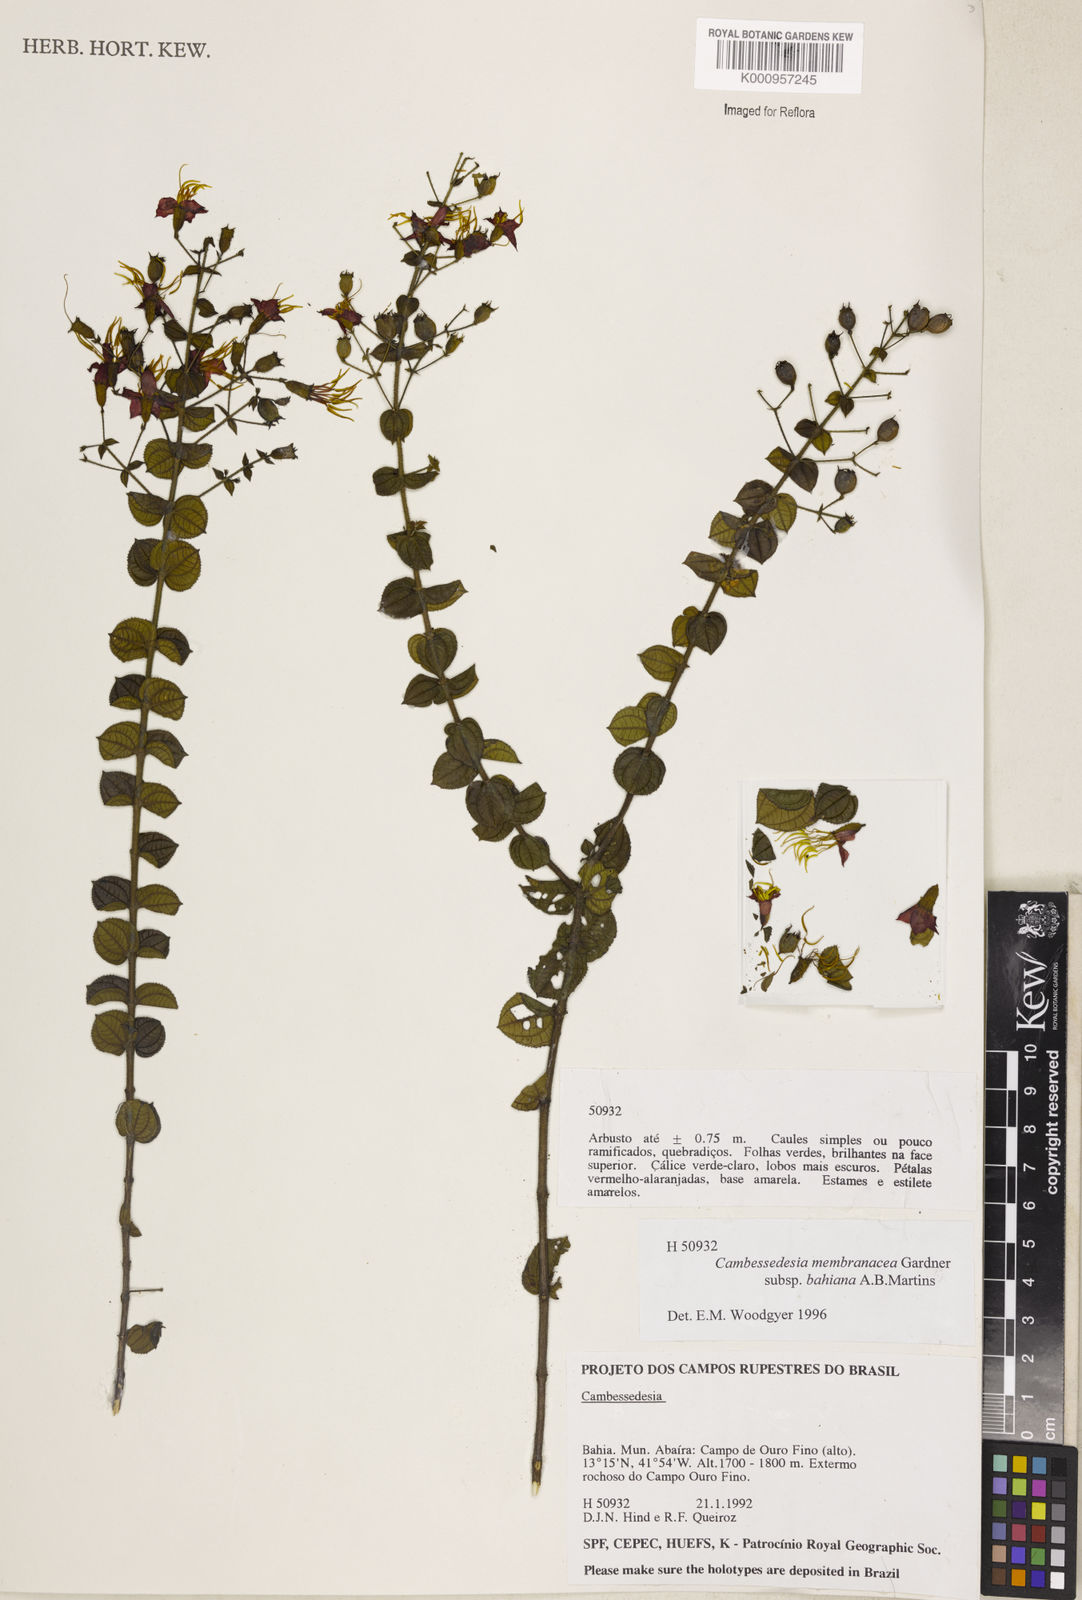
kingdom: Plantae
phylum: Tracheophyta
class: Magnoliopsida
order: Myrtales
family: Melastomataceae
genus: Cambessedesia
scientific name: Cambessedesia membranacea
